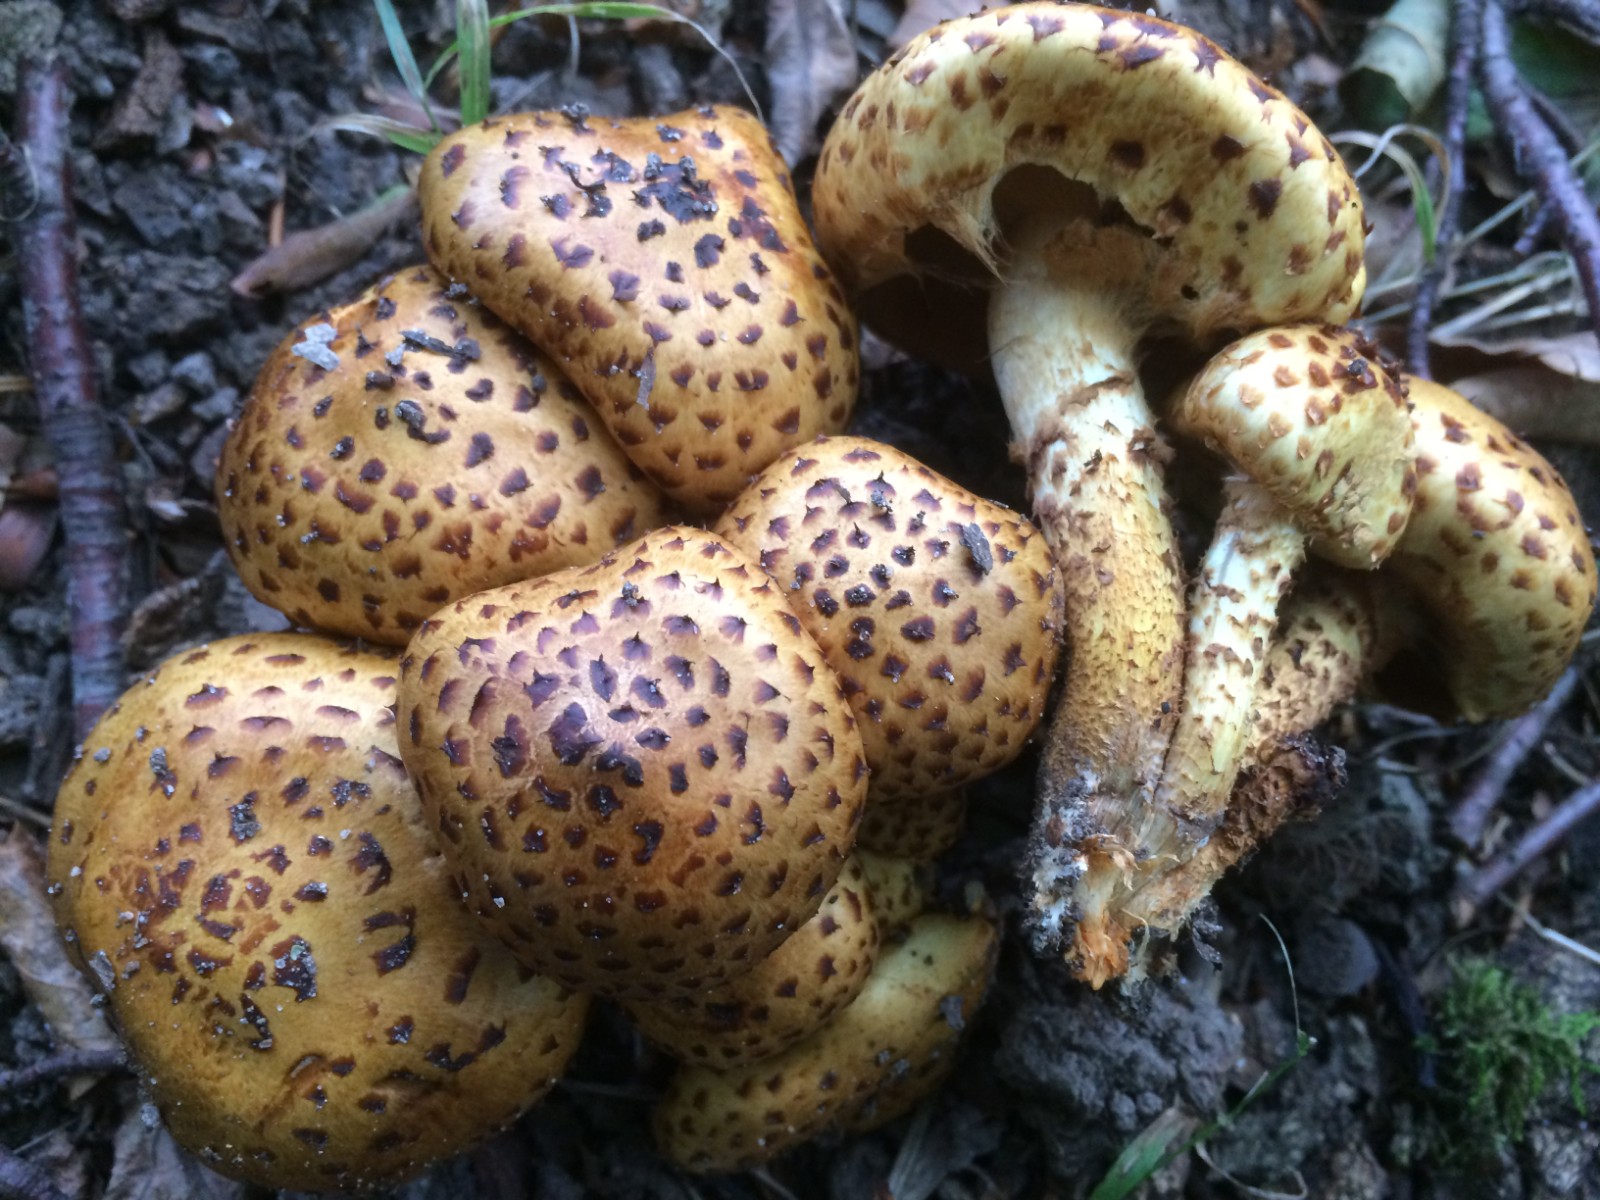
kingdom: Fungi
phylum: Basidiomycota
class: Agaricomycetes
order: Agaricales
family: Strophariaceae
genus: Pholiota
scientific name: Pholiota jahnii
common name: slimet skælhat
